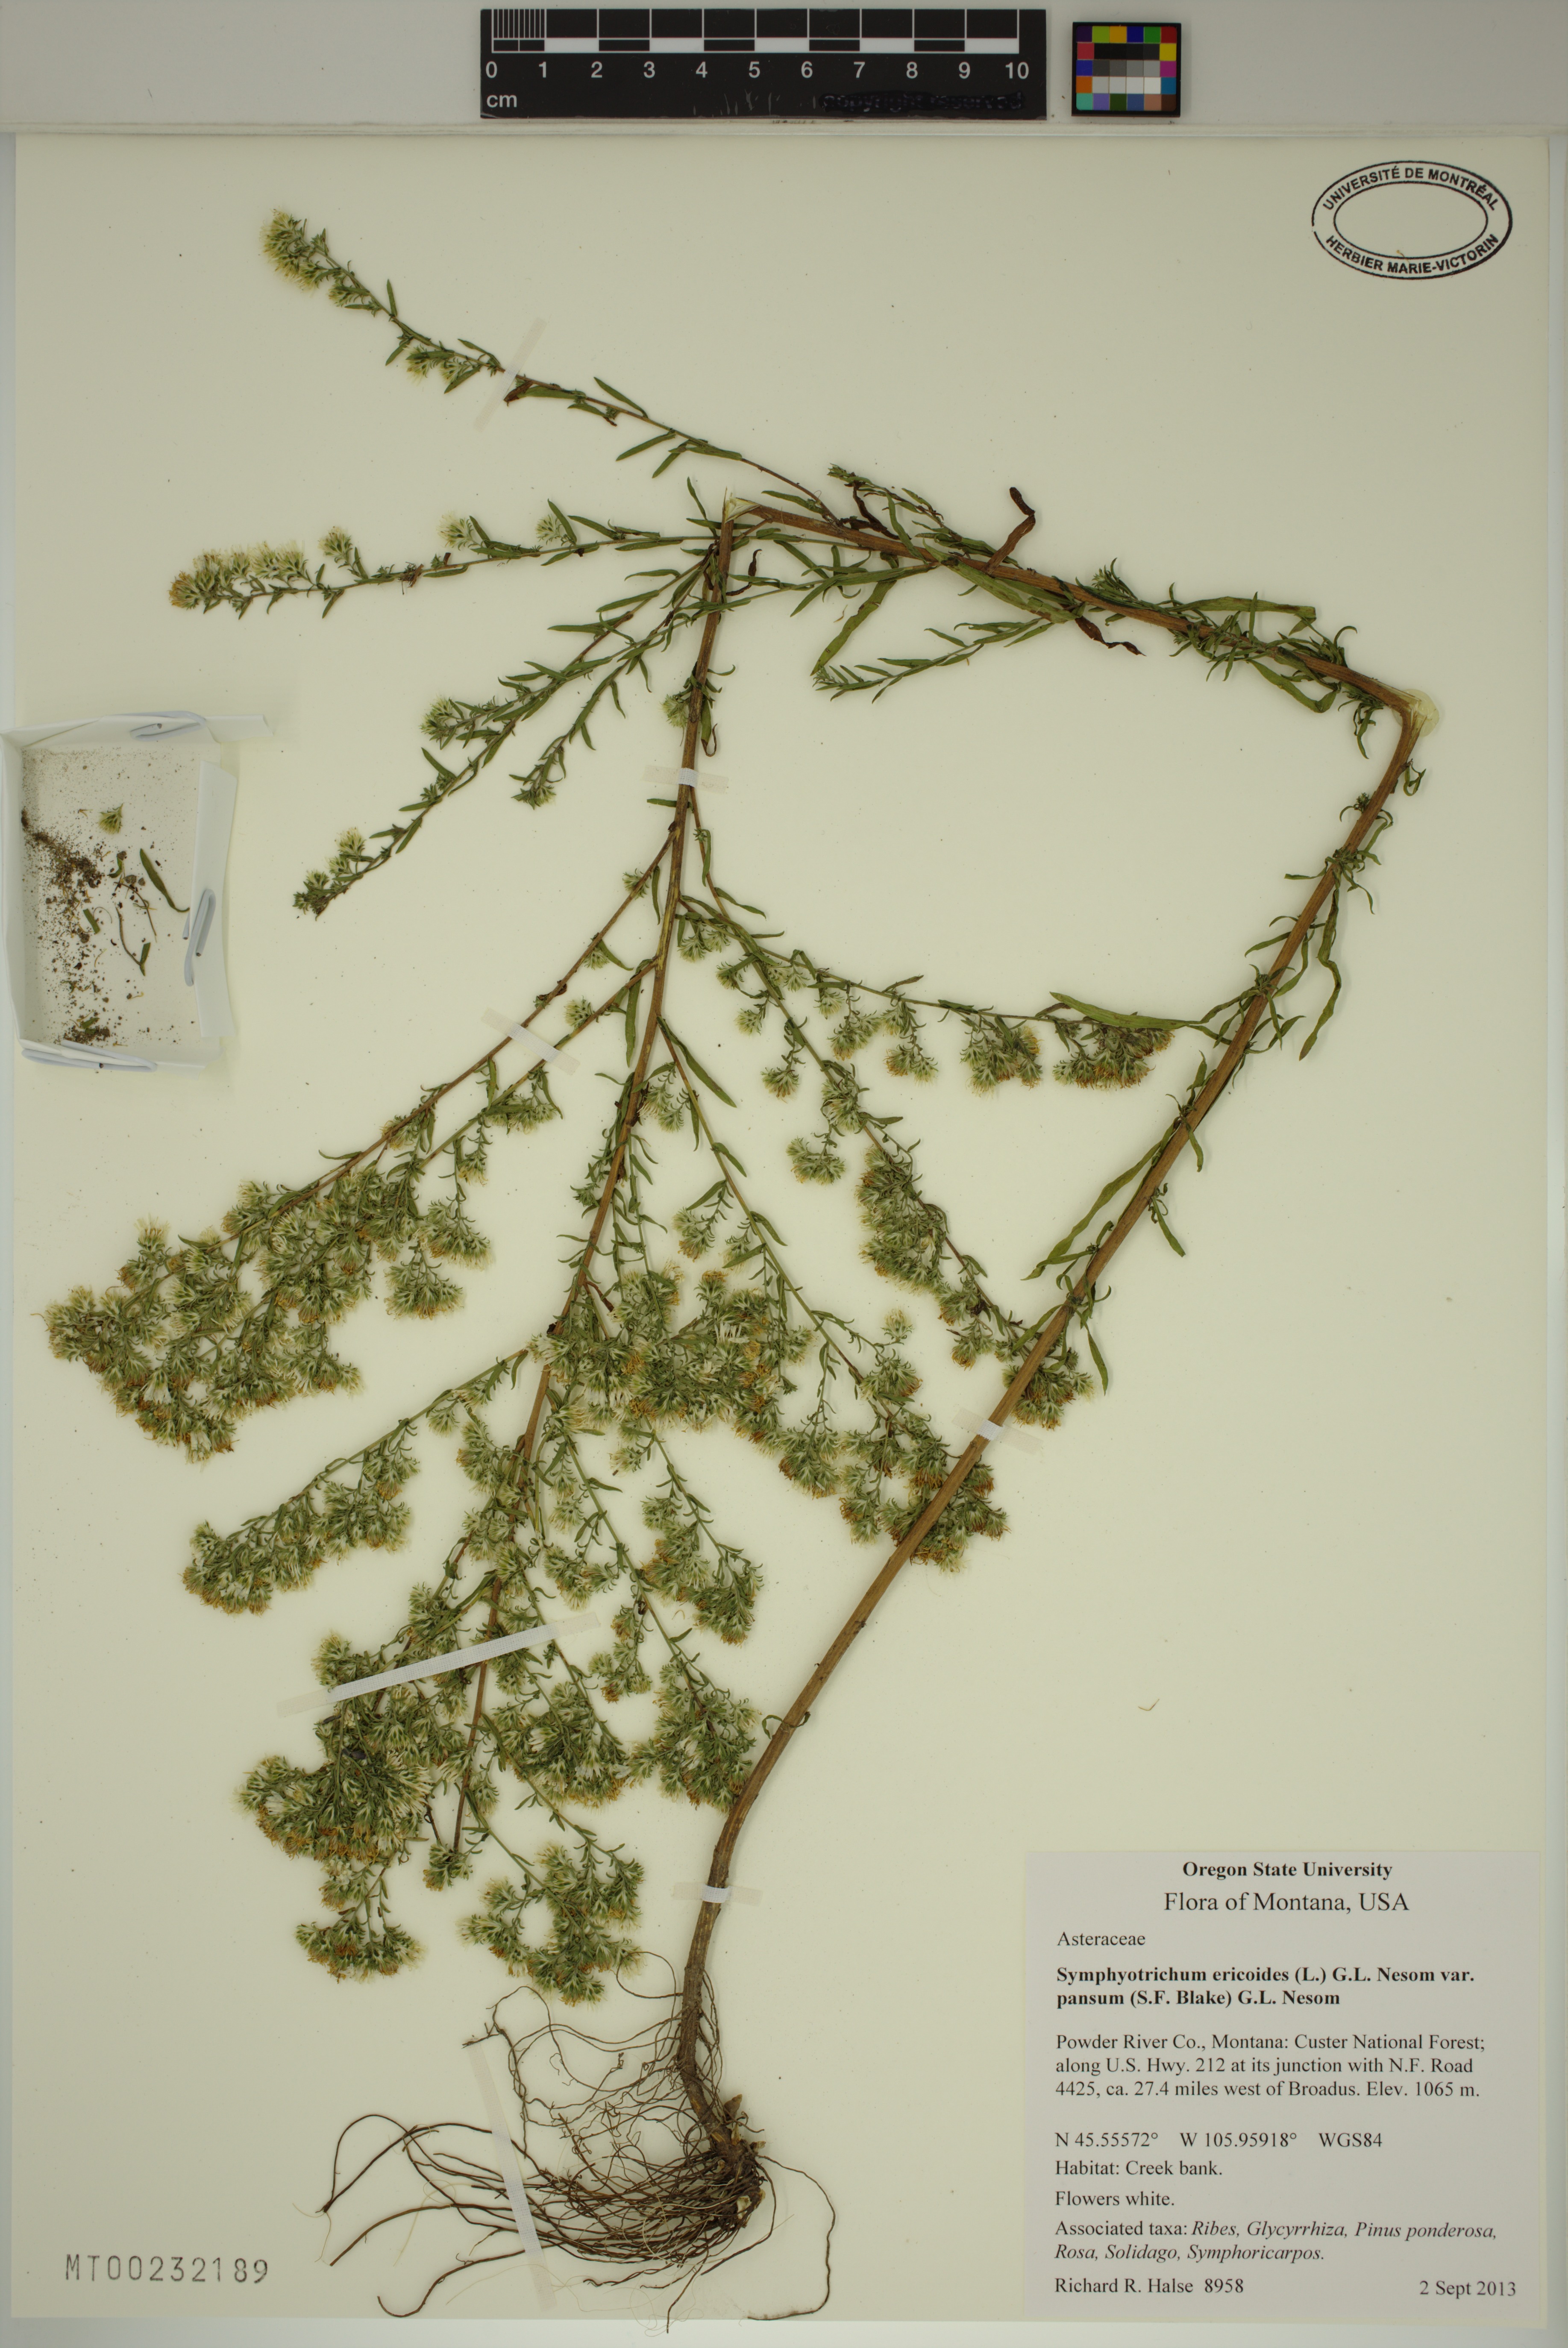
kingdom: Plantae
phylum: Tracheophyta
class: Magnoliopsida
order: Asterales
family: Asteraceae
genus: Symphyotrichum
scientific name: Symphyotrichum ericoides
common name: Heath aster
